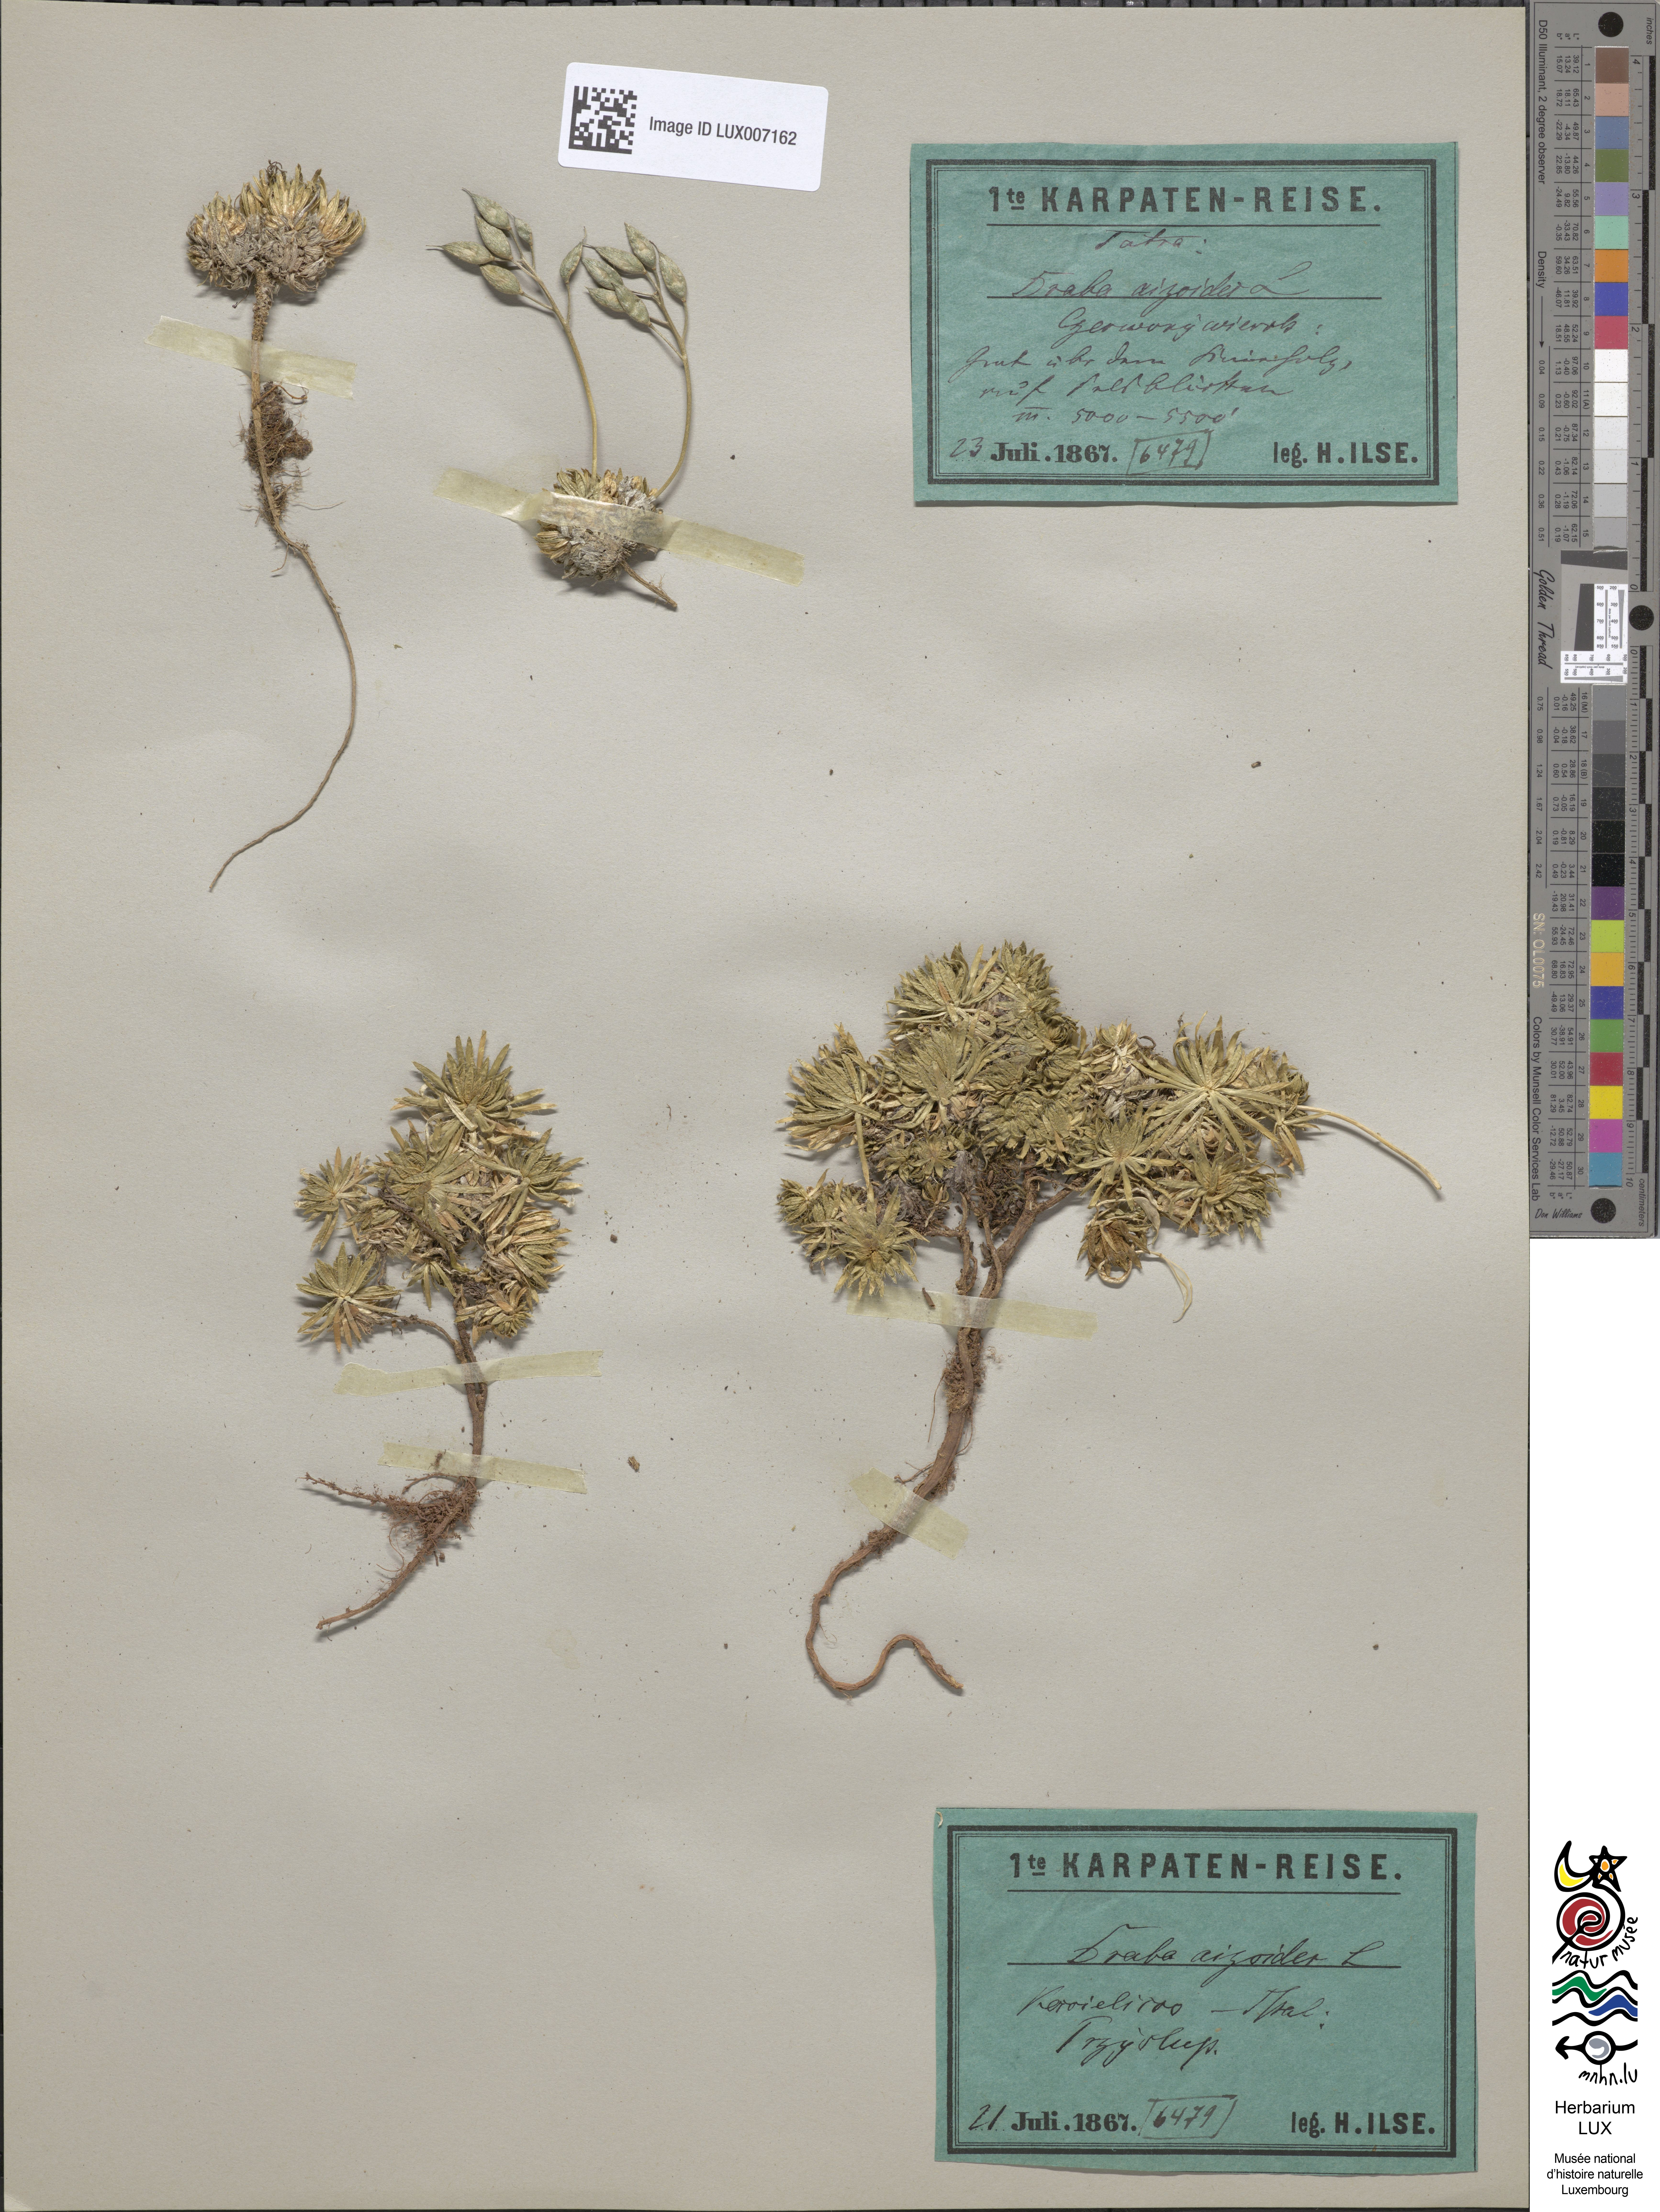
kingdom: Plantae
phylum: Tracheophyta
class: Magnoliopsida
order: Brassicales
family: Brassicaceae
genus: Draba
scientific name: Draba aizoides
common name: Yellow whitlowgrass
